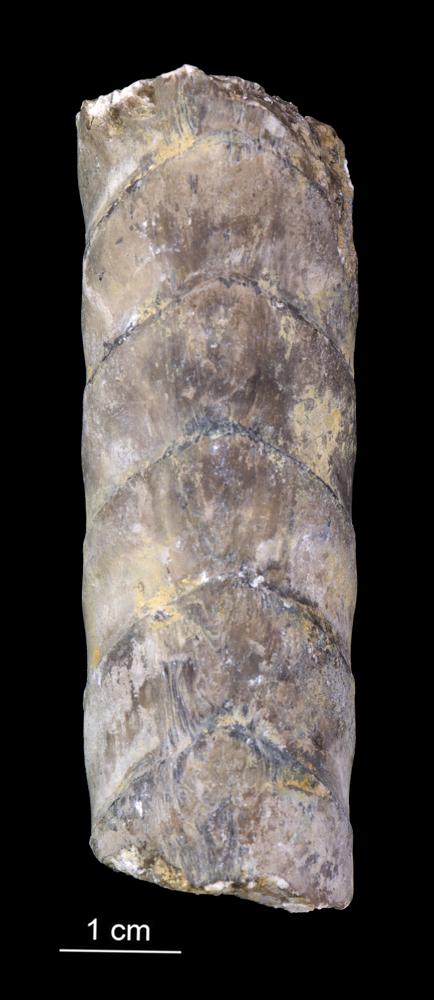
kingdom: Animalia
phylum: Mollusca
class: Cephalopoda
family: Estonioceratidae
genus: Estonioceras
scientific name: Estonioceras
